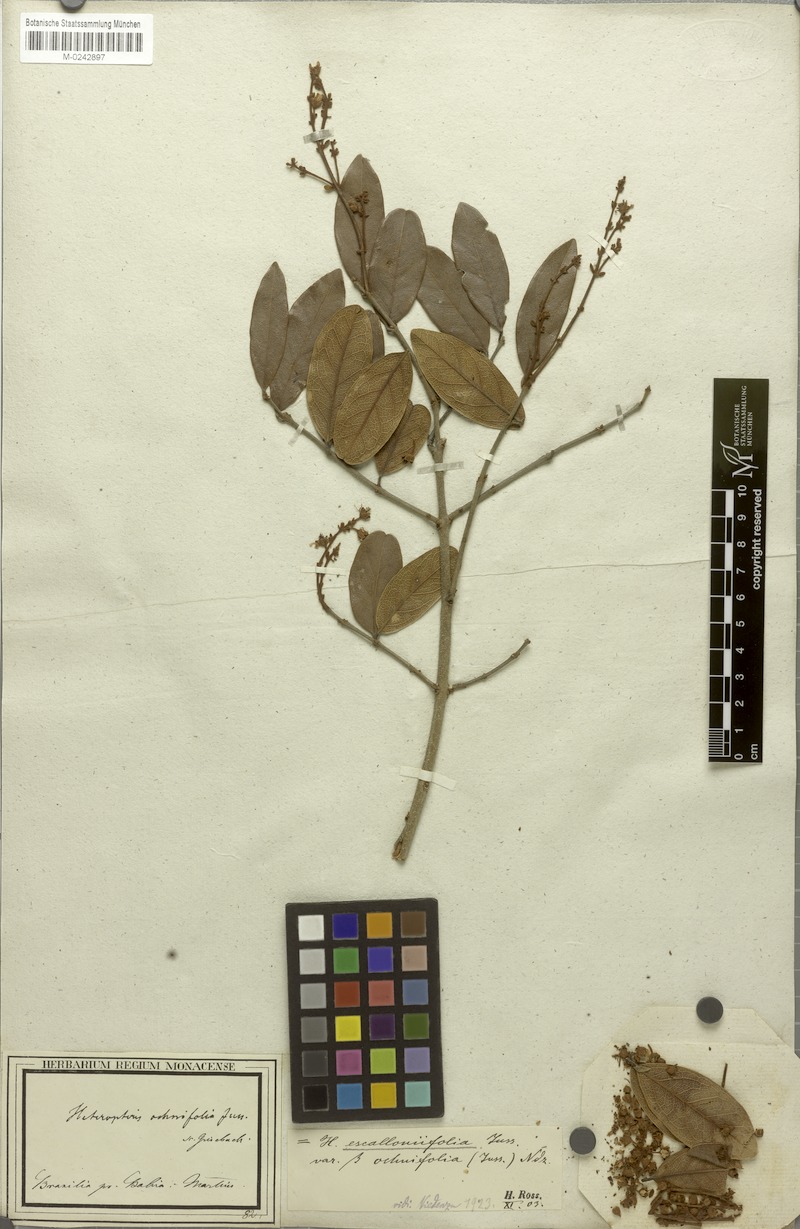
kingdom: Plantae
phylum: Tracheophyta
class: Magnoliopsida
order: Malpighiales
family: Malpighiaceae
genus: Heteropterys
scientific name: Heteropterys escalloniifolia
